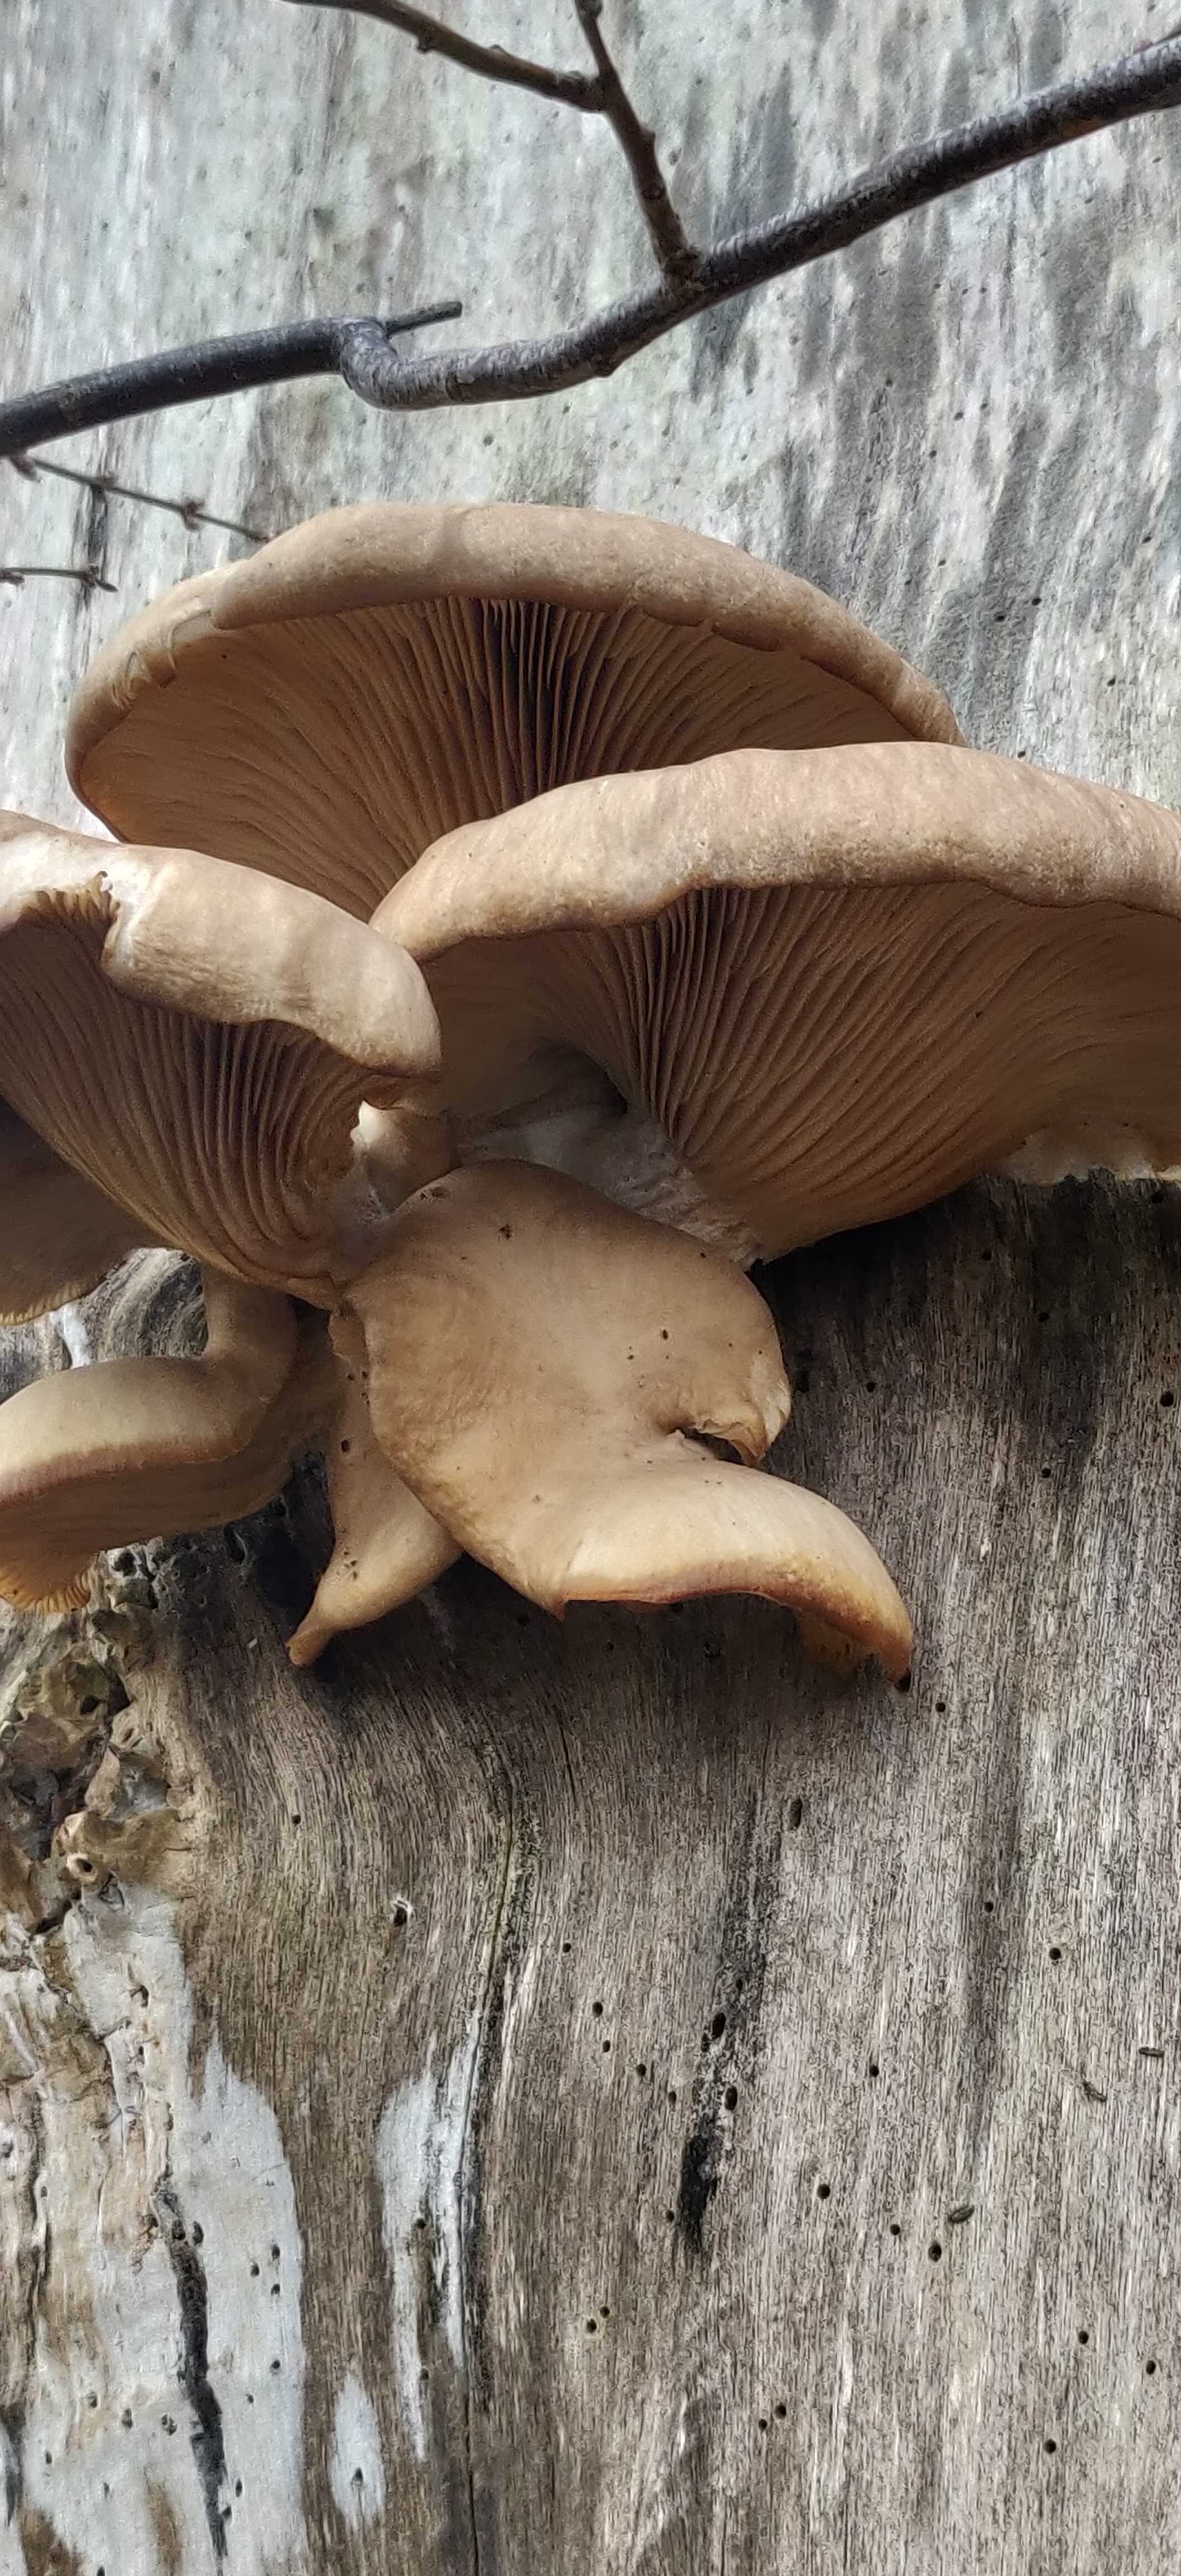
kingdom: Fungi
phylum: Basidiomycota
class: Agaricomycetes
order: Agaricales
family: Pleurotaceae
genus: Pleurotus
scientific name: Pleurotus ostreatus
